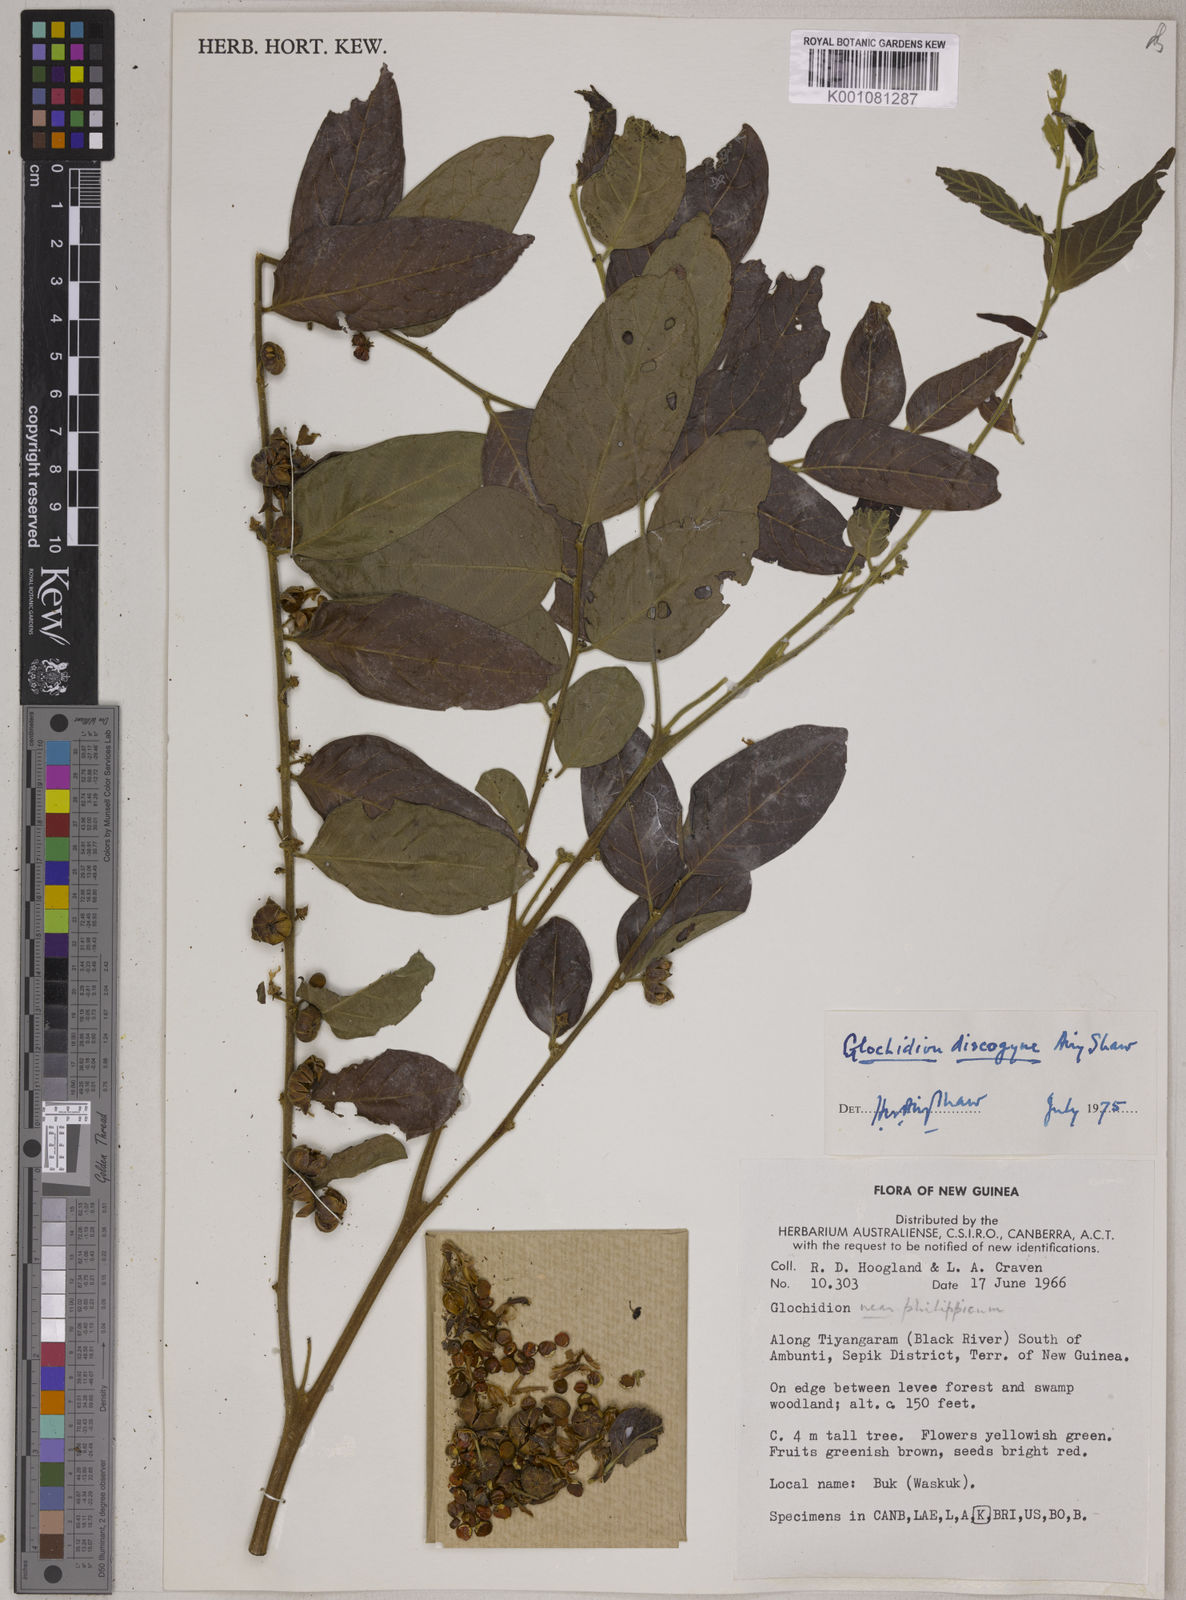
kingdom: Plantae
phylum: Tracheophyta
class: Magnoliopsida
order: Malpighiales
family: Phyllanthaceae
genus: Glochidion
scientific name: Glochidion discogyne
